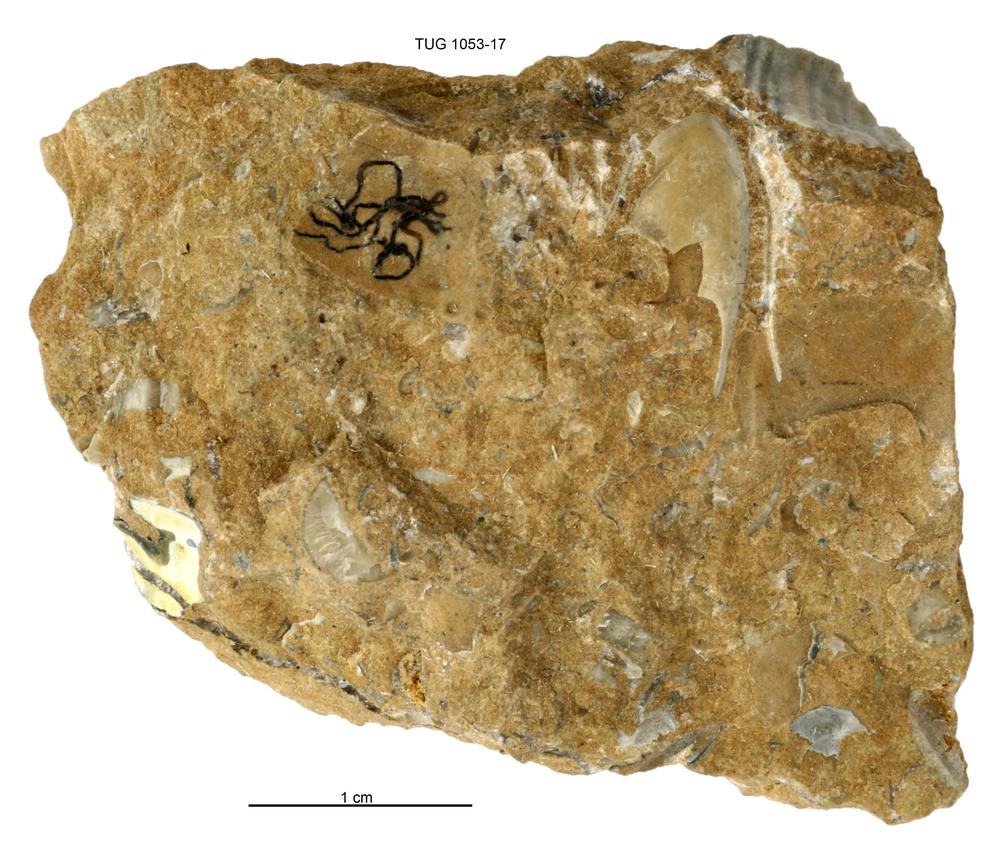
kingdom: Animalia
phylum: Hemichordata
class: Pterobranchia
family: Cephalodiscidae
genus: Melanostrophus
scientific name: Melanostrophus
